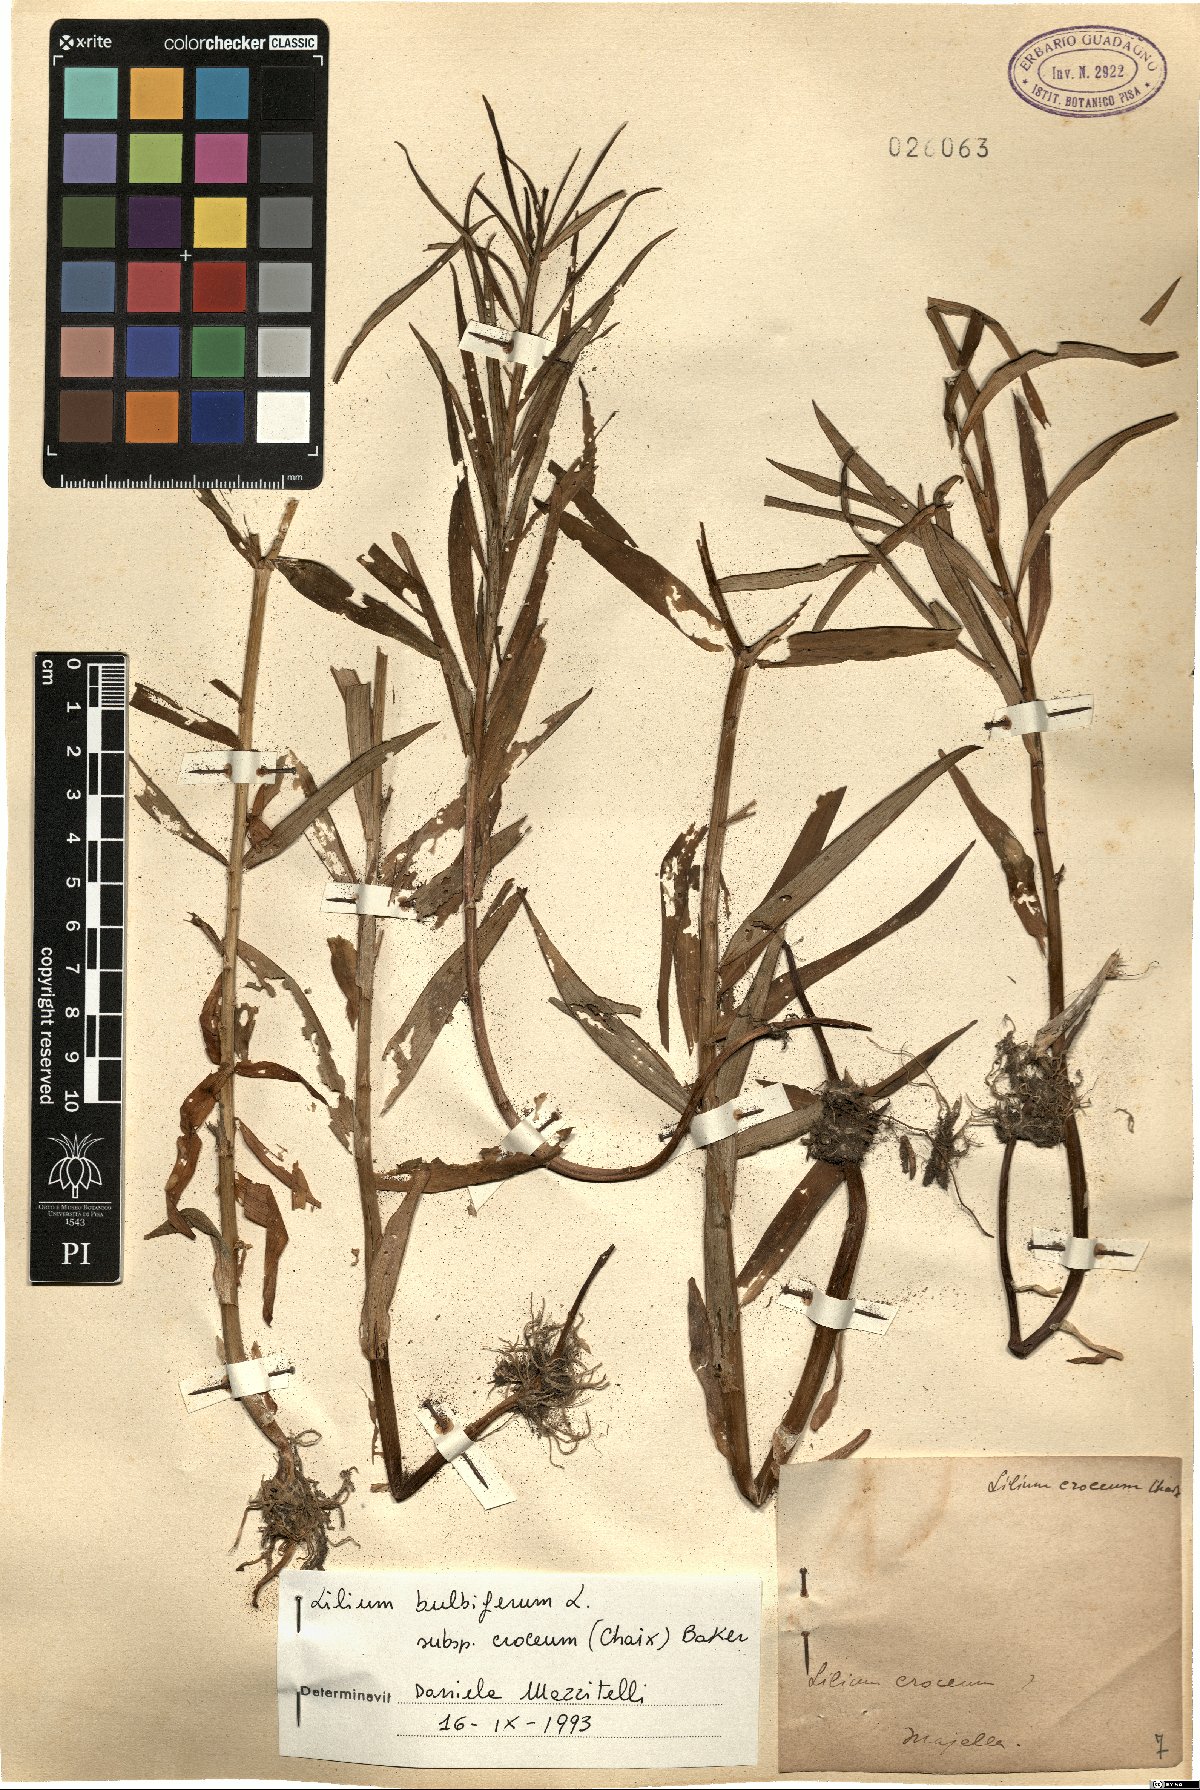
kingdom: Plantae
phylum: Tracheophyta
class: Liliopsida
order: Liliales
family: Liliaceae
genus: Lilium
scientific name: Lilium bulbiferum
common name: Orange lily
